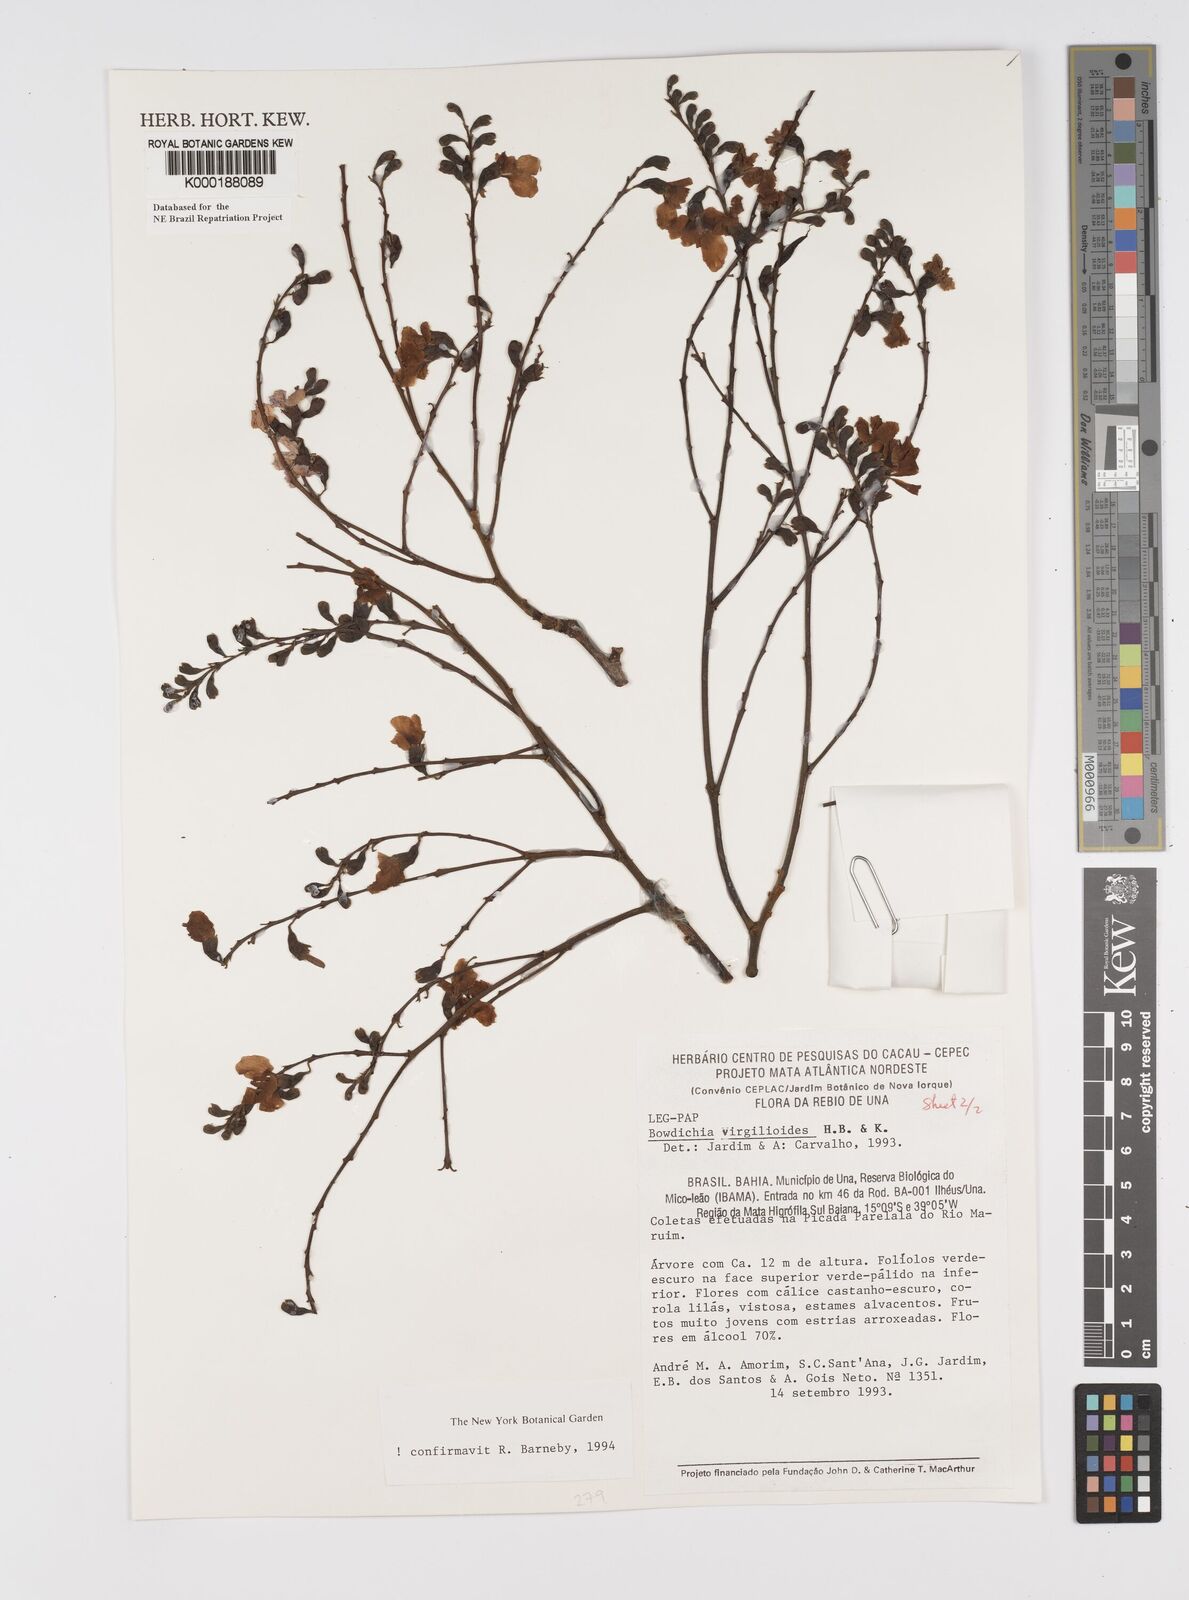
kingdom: Plantae
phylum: Tracheophyta
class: Magnoliopsida
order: Fabales
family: Fabaceae
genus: Bowdichia
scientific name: Bowdichia virgilioides
